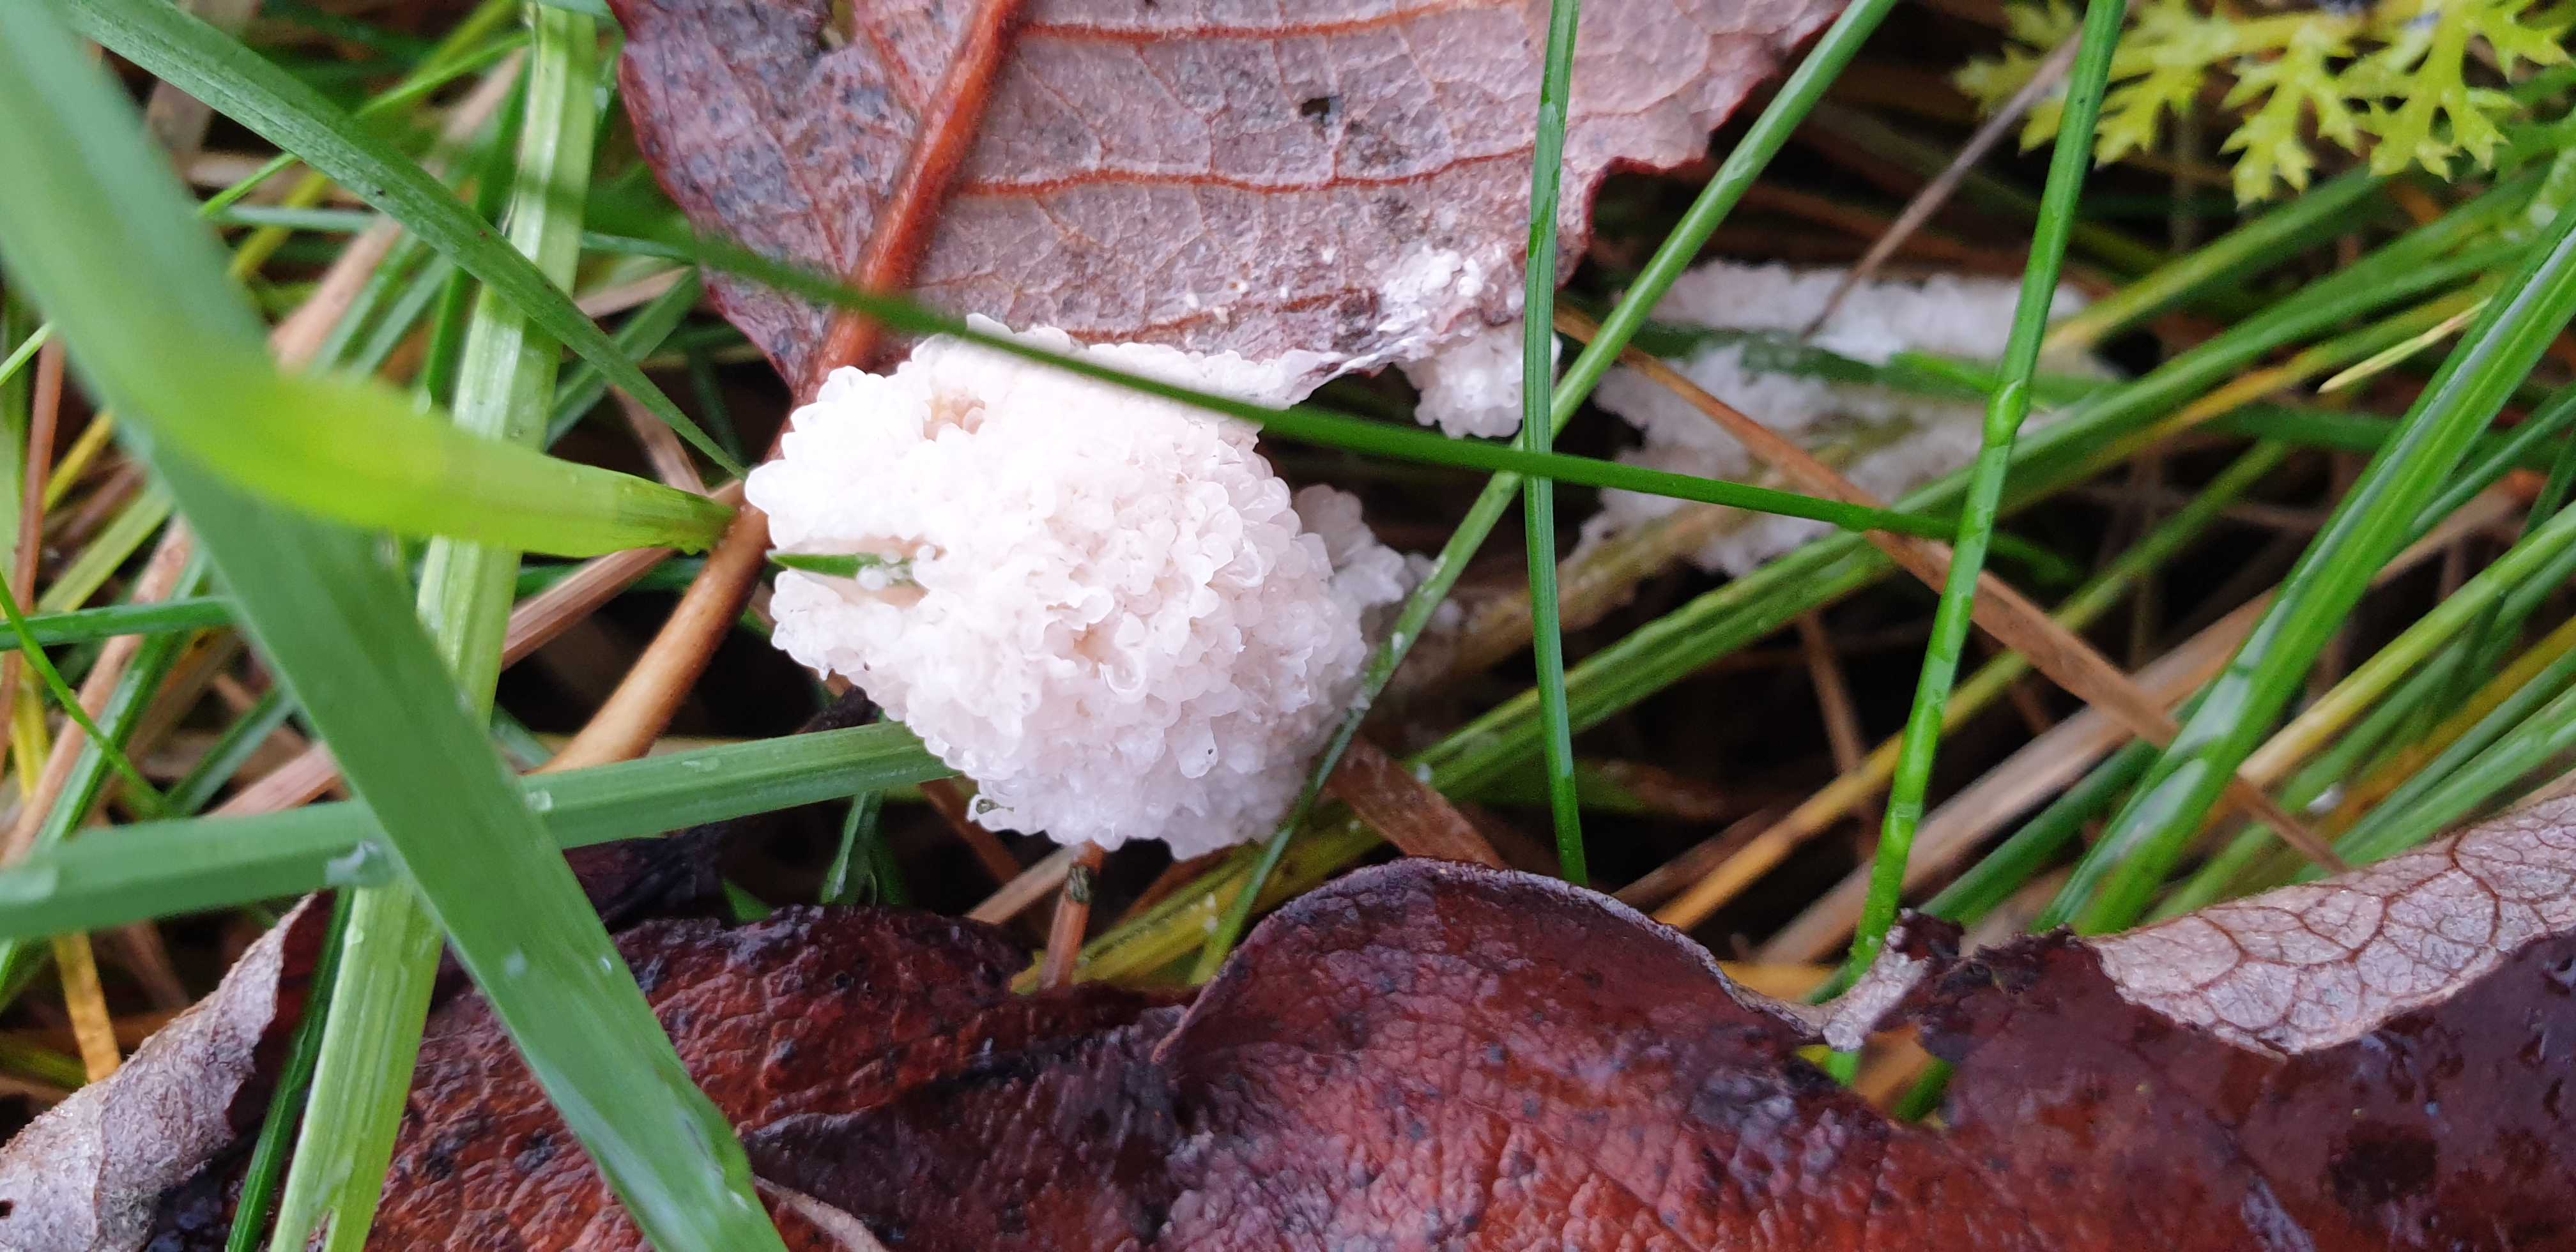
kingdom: Protozoa
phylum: Mycetozoa
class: Myxomycetes
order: Physarales
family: Physaraceae
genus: Didymium
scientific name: Didymium
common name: urteskum
